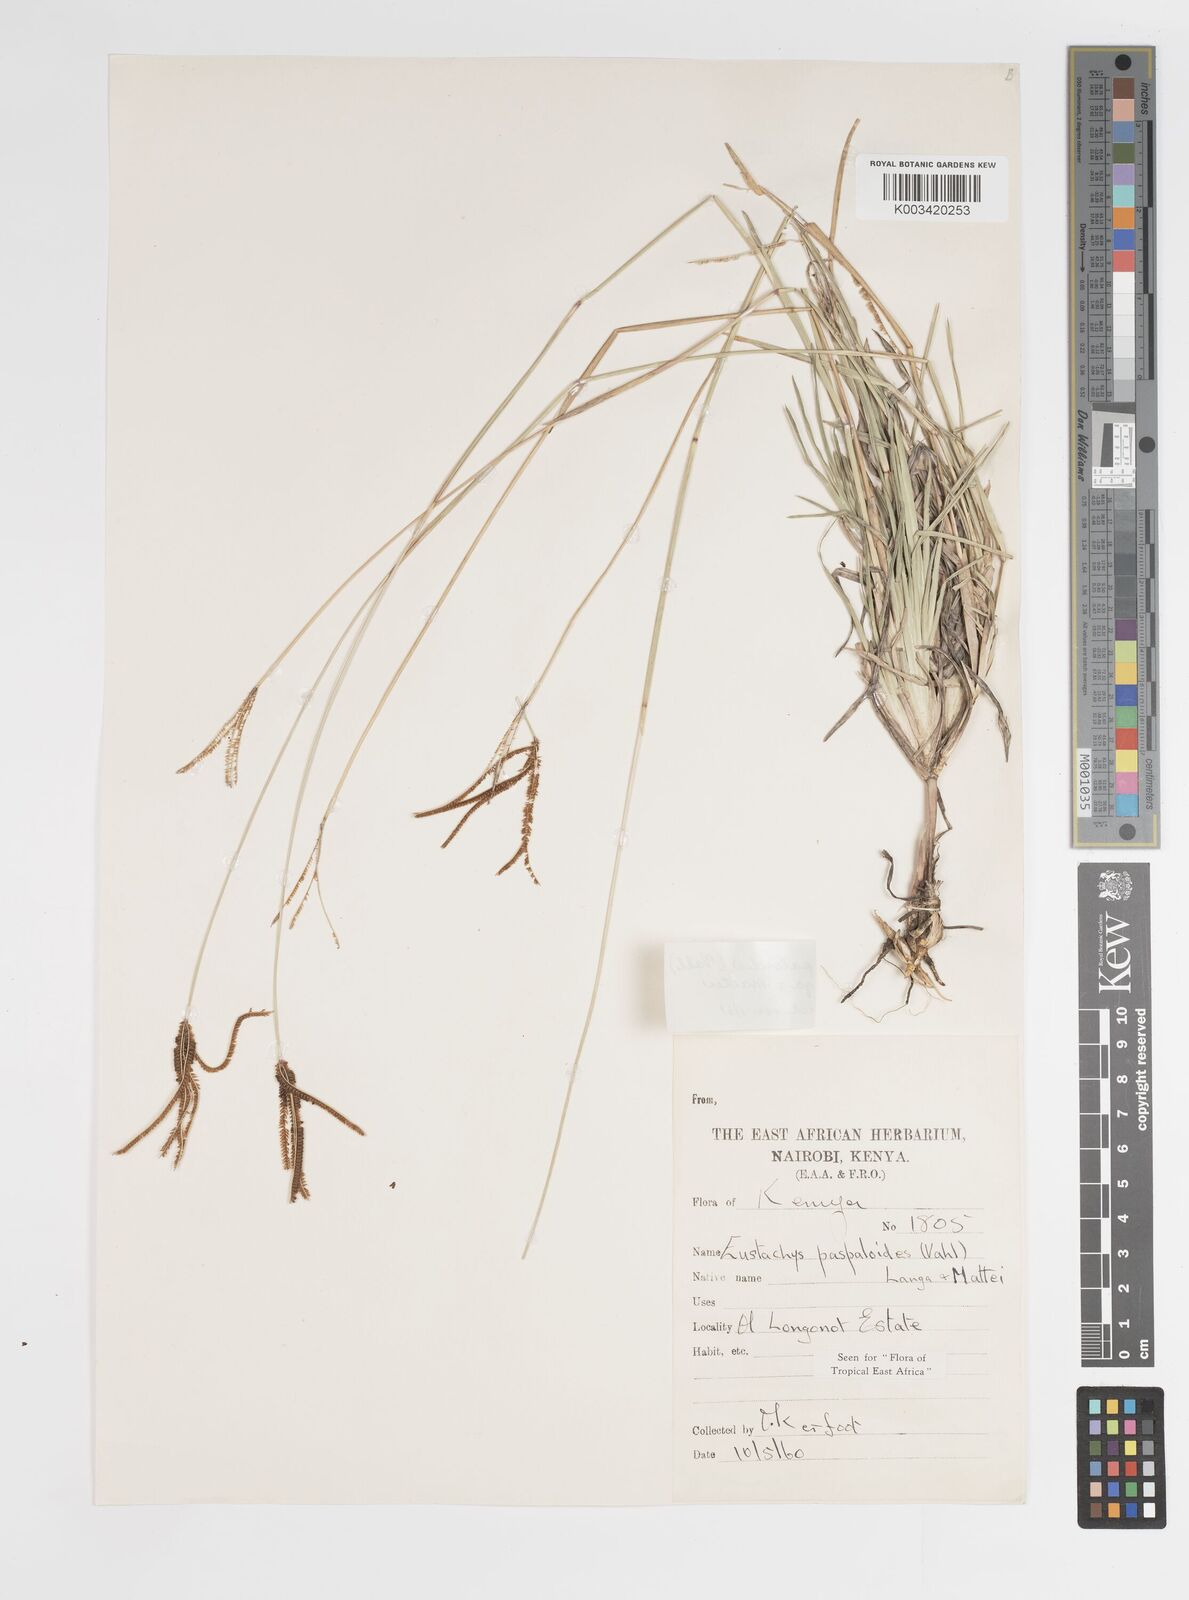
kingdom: Plantae
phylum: Tracheophyta
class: Liliopsida
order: Poales
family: Poaceae
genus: Eustachys
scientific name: Eustachys paspaloides
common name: Caribbean fingergrass
